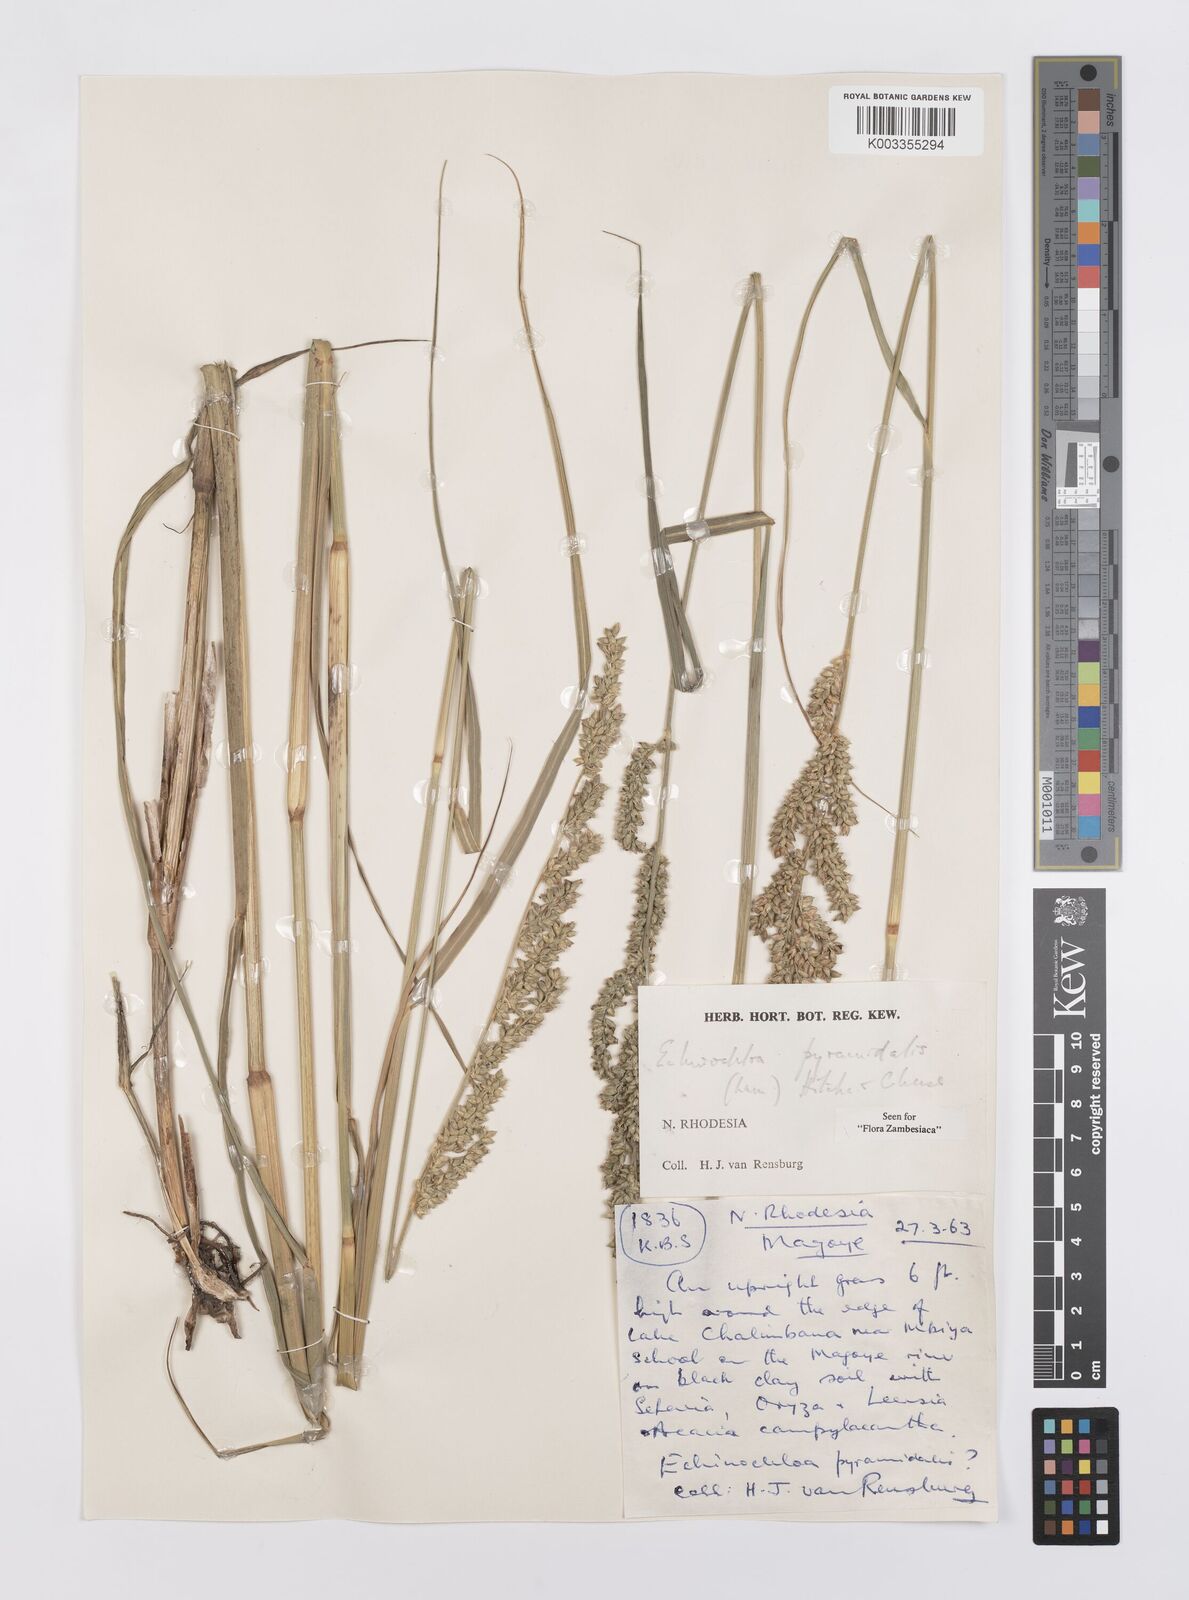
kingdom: Plantae
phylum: Tracheophyta
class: Liliopsida
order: Poales
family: Poaceae
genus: Echinochloa
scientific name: Echinochloa pyramidalis
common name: Antelope grass
